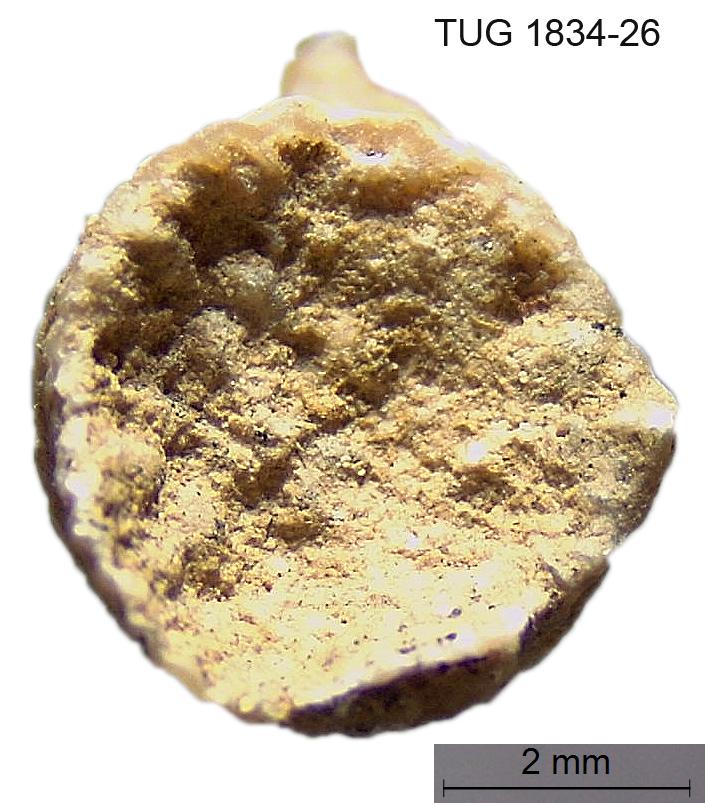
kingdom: Animalia
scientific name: Animalia
